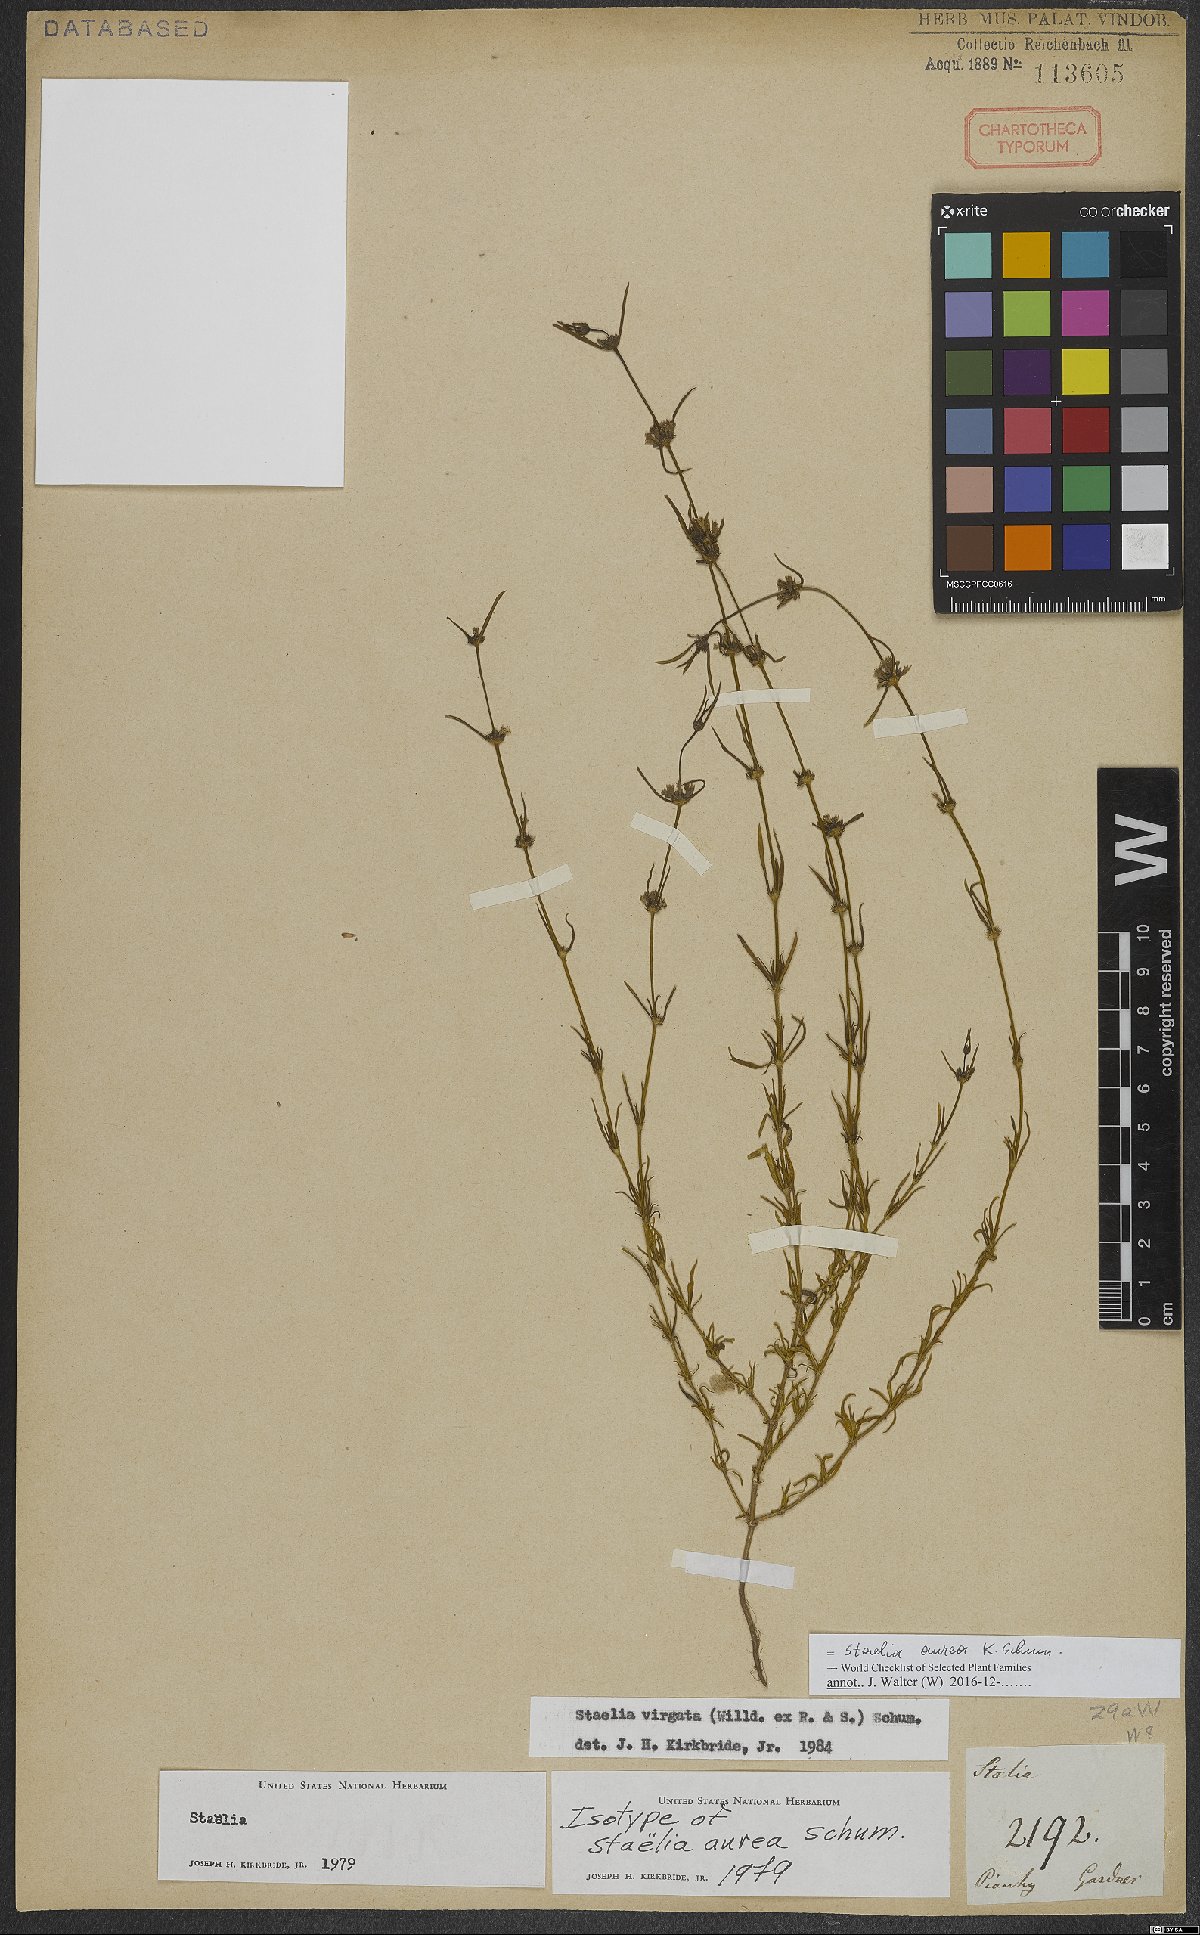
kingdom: Plantae
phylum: Tracheophyta
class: Magnoliopsida
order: Gentianales
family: Rubiaceae
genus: Staelia
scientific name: Staelia aurea
